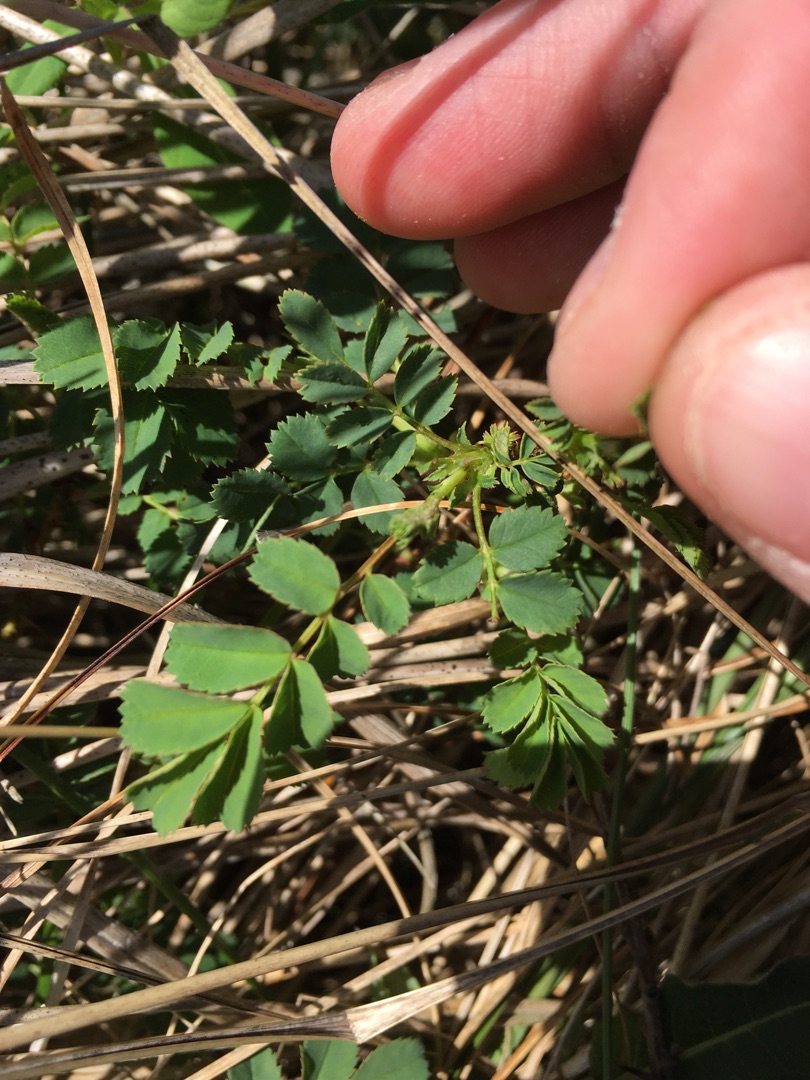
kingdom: Plantae
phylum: Tracheophyta
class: Magnoliopsida
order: Rosales
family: Rosaceae
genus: Rosa
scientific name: Rosa spinosissima
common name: Klit-rose
